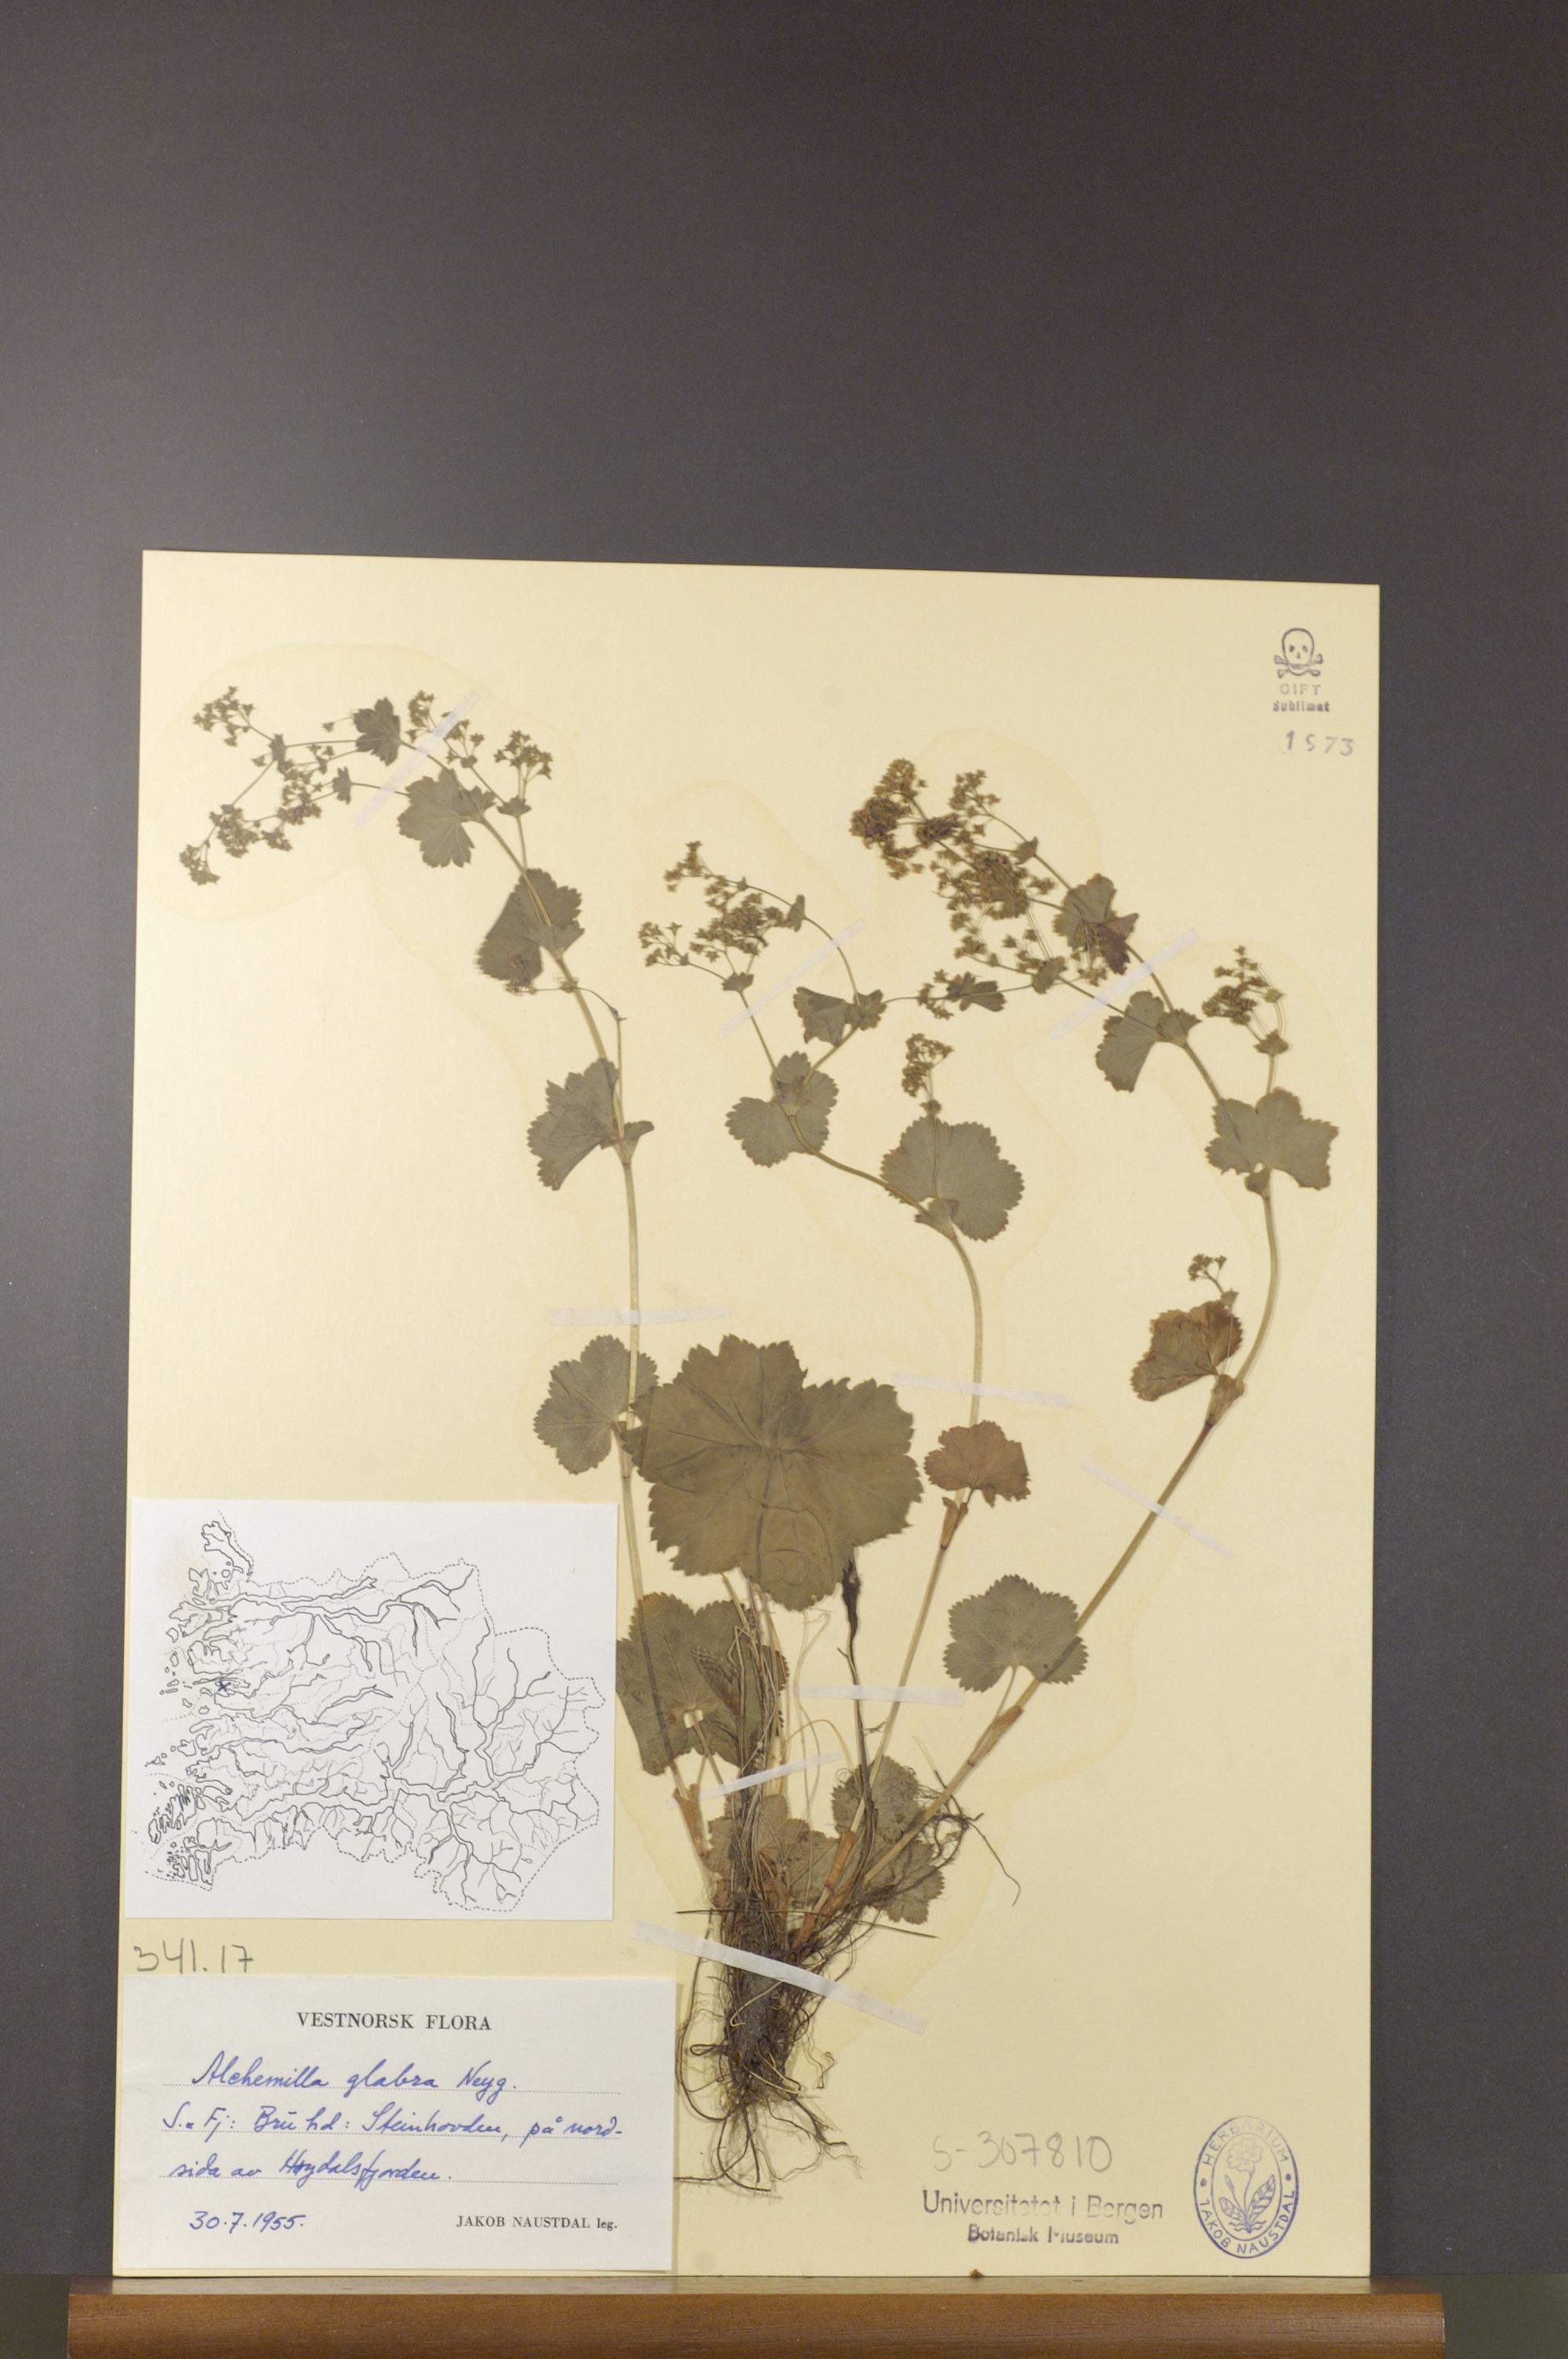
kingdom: Plantae
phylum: Tracheophyta
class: Magnoliopsida
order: Rosales
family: Rosaceae
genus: Alchemilla
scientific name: Alchemilla glabra
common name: Smooth lady's-mantle
